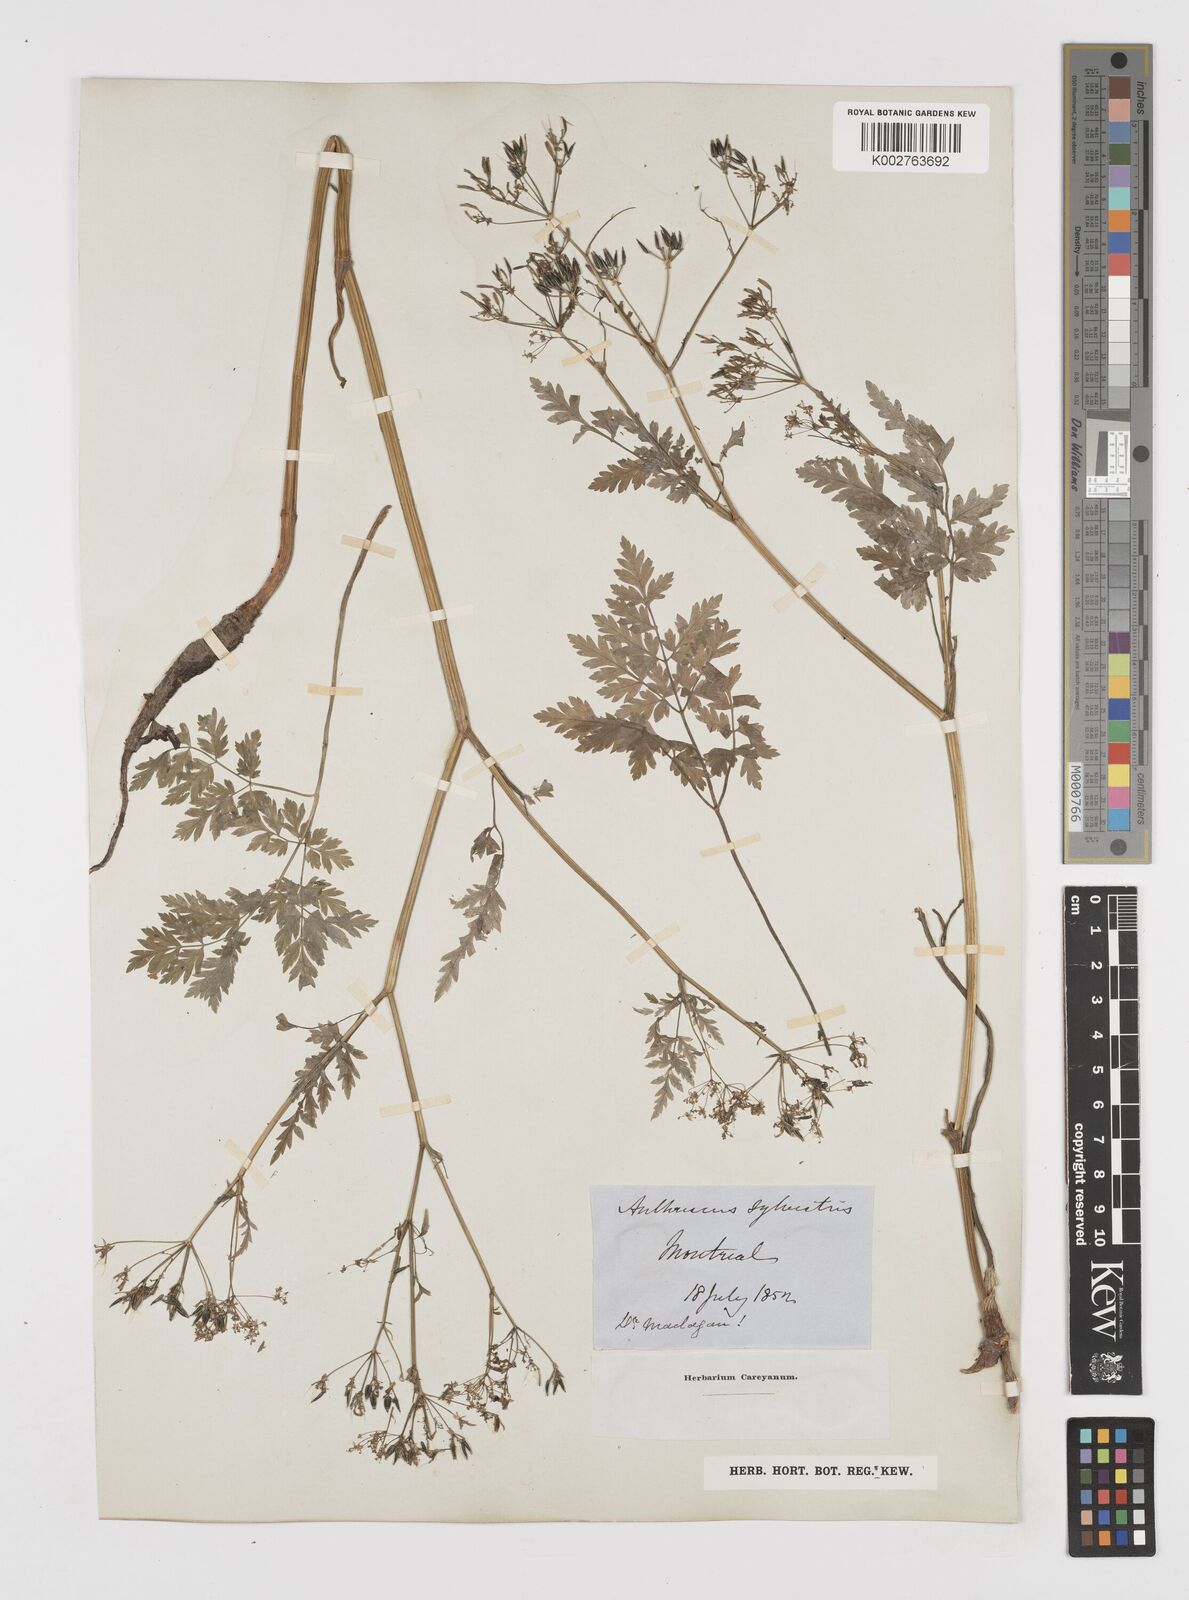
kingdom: Plantae
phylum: Tracheophyta
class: Magnoliopsida
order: Apiales
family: Apiaceae
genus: Anthriscus
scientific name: Anthriscus sylvestris
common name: Cow parsley
